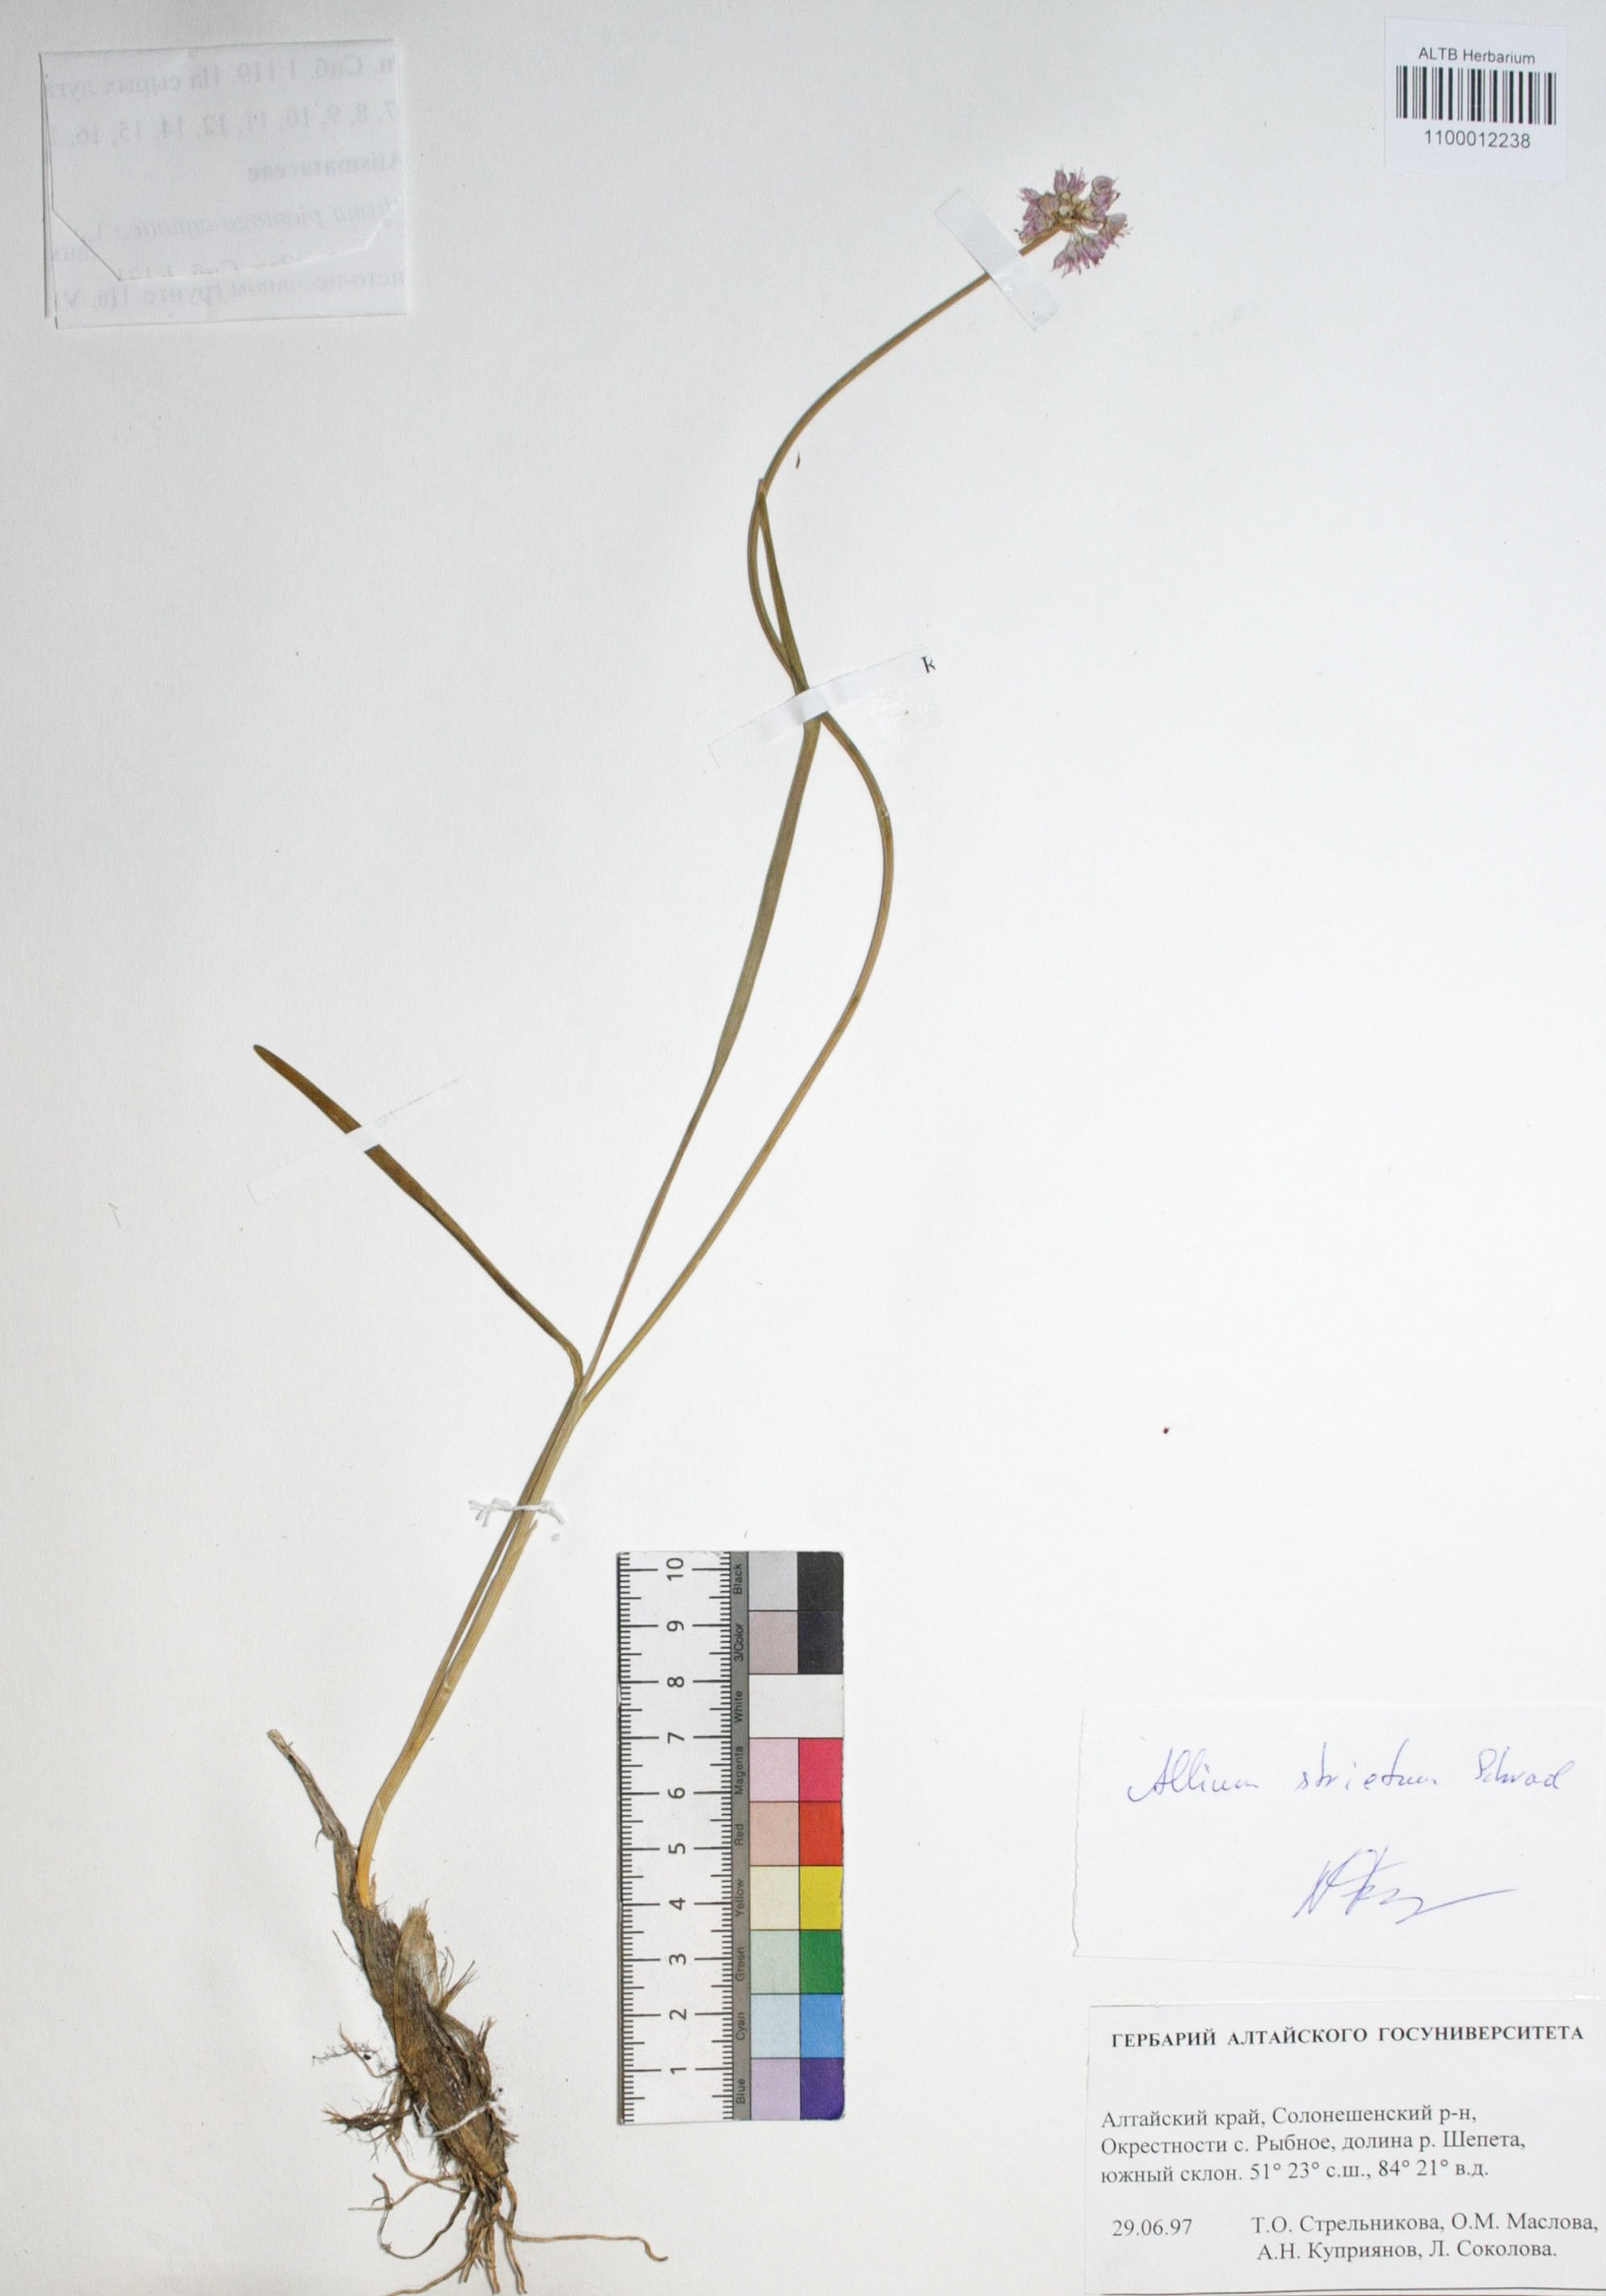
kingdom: Plantae
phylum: Tracheophyta
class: Liliopsida
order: Asparagales
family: Amaryllidaceae
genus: Allium
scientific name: Allium strictum
